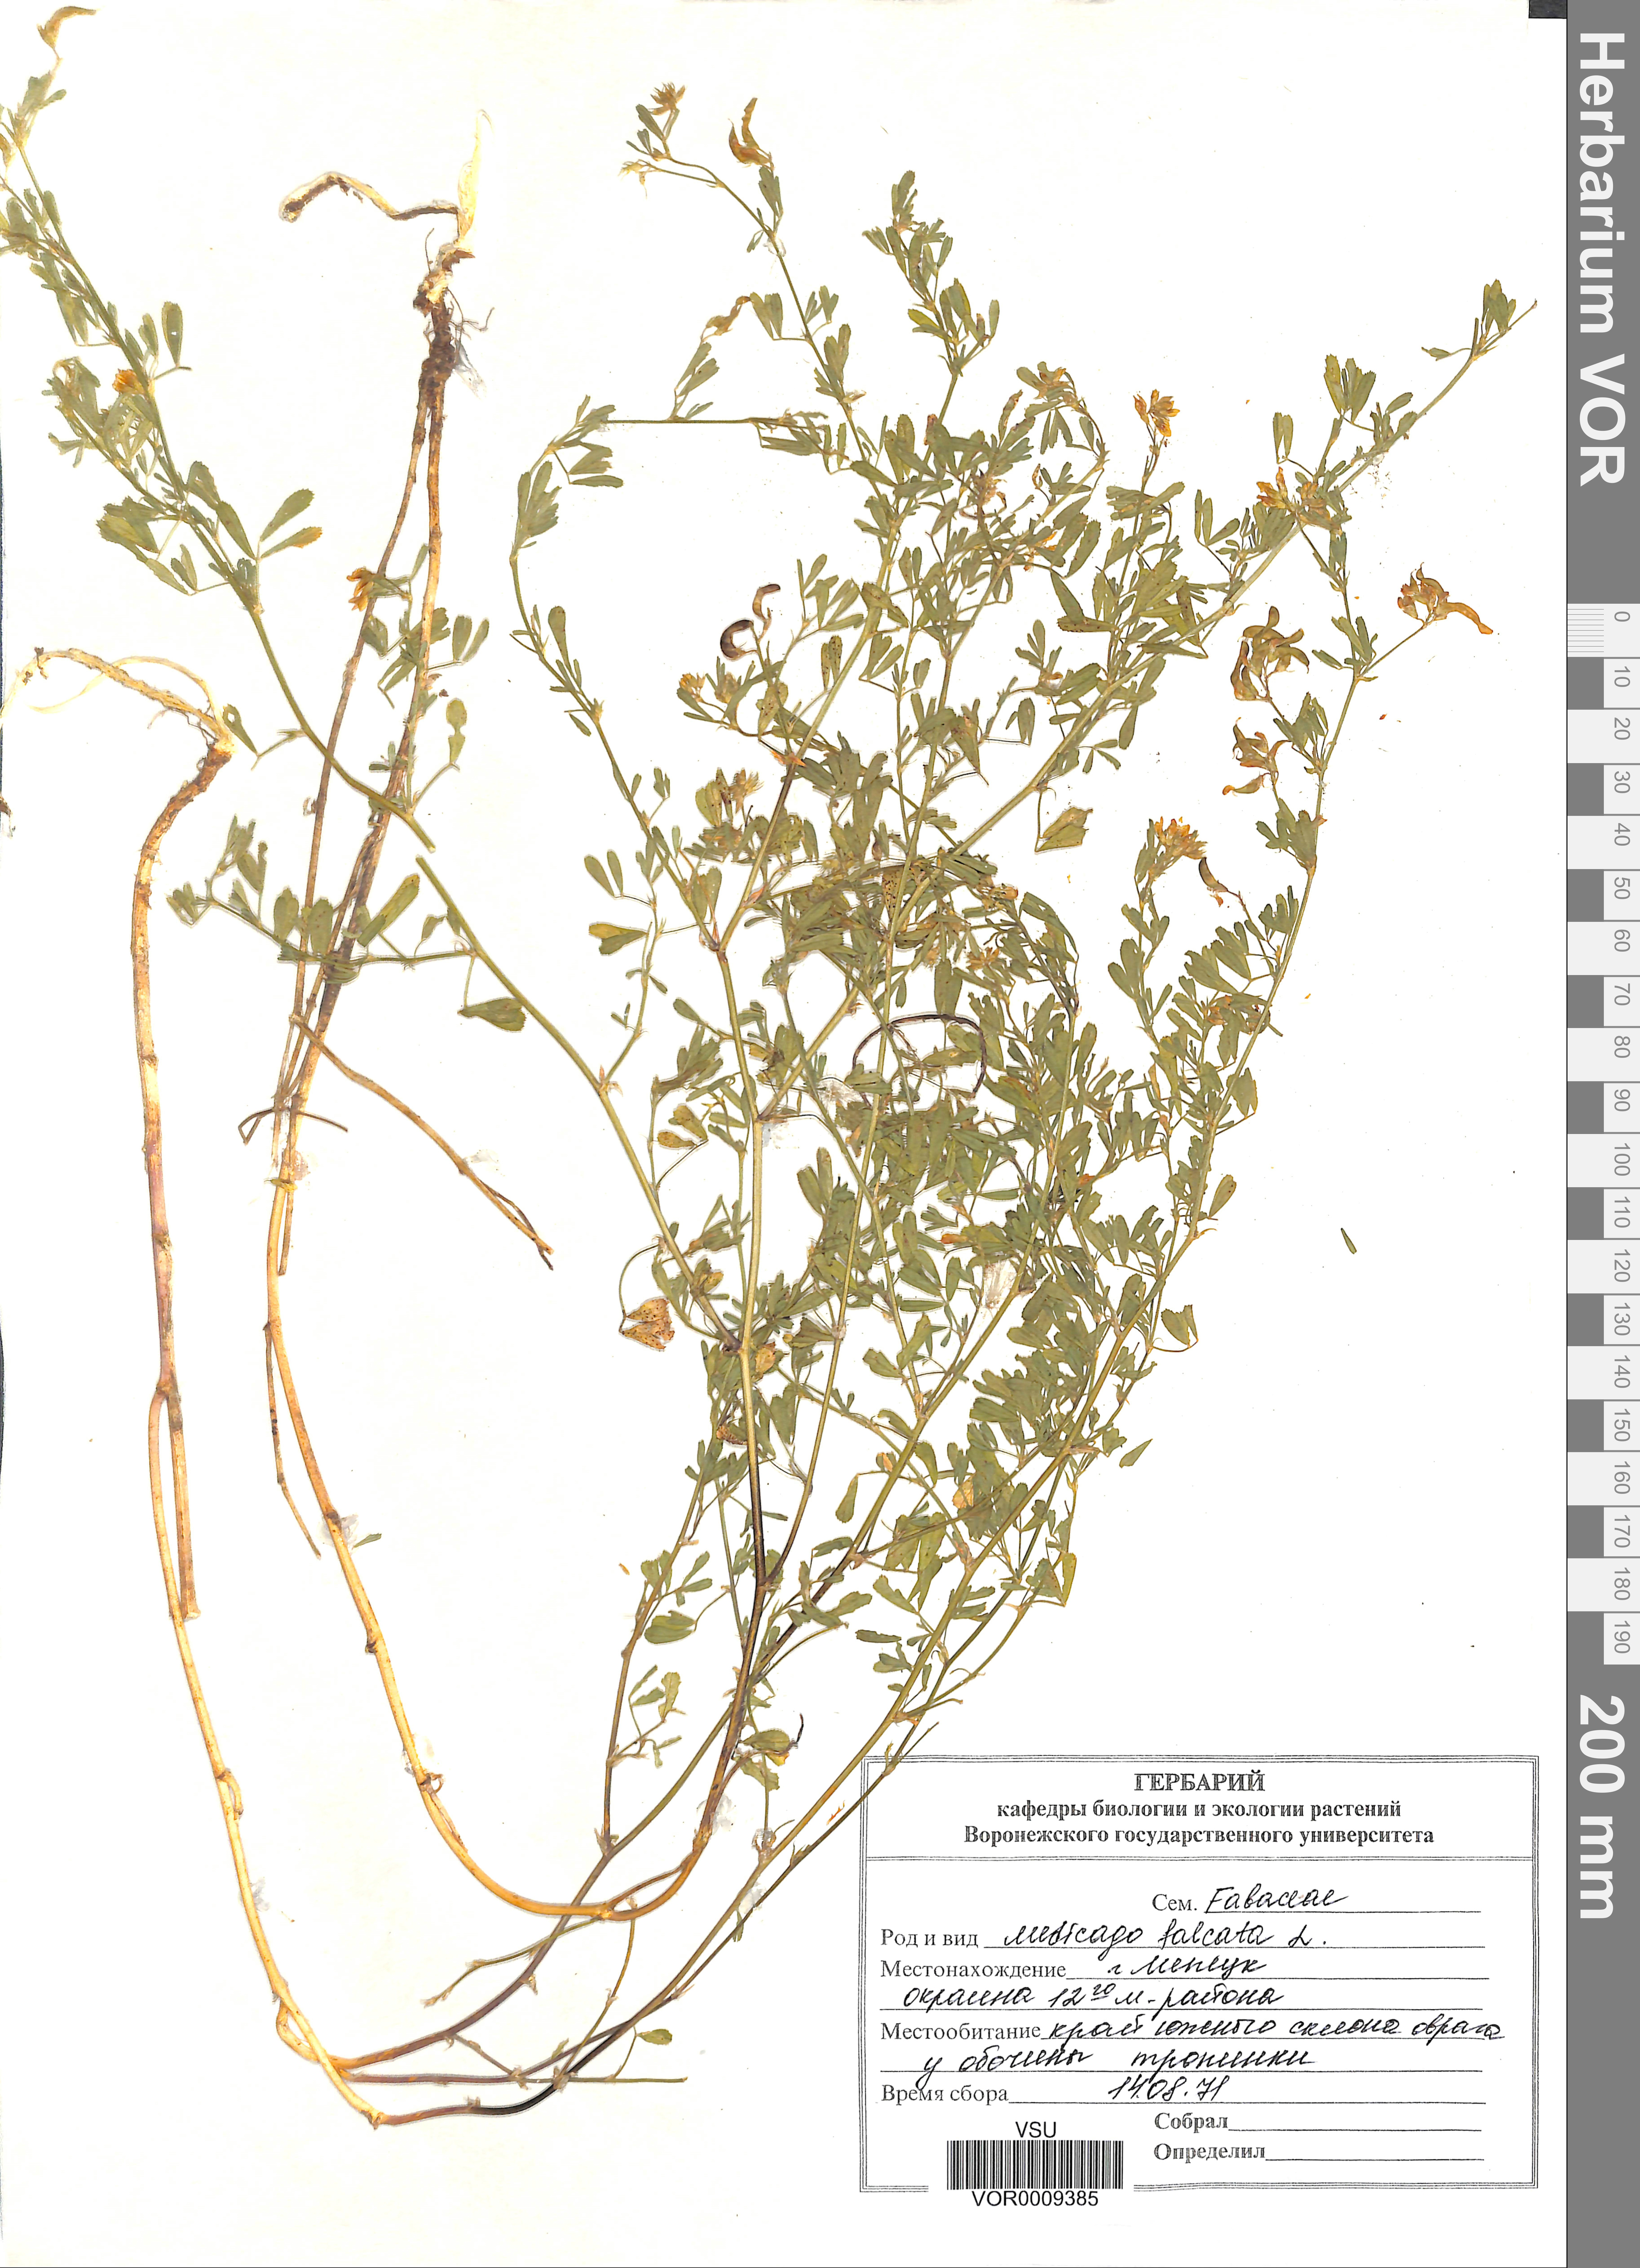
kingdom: Plantae
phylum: Tracheophyta
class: Magnoliopsida
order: Fabales
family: Fabaceae
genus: Medicago
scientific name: Medicago falcata
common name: Sickle medick
